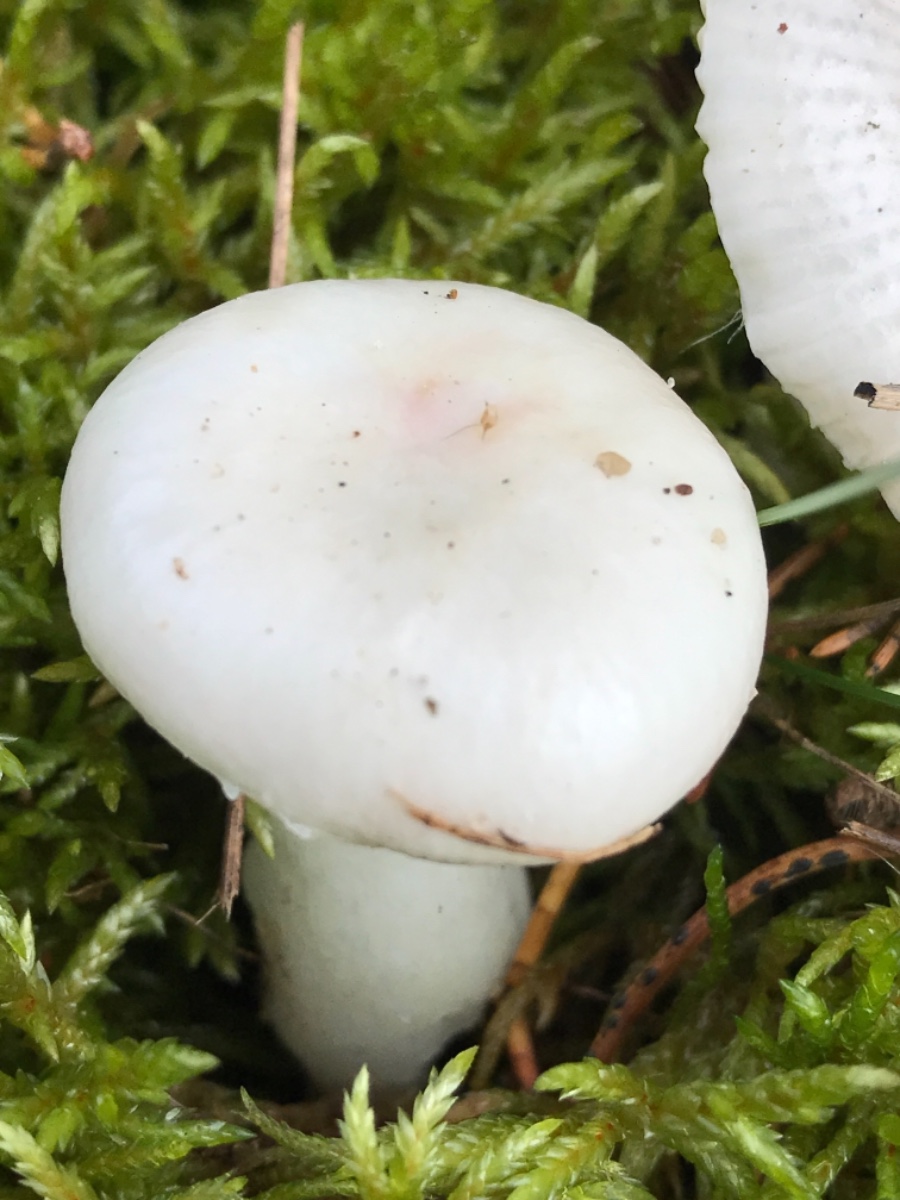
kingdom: Fungi
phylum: Basidiomycota
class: Agaricomycetes
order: Russulales
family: Russulaceae
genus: Russula
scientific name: Russula betularum
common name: bleg gift-skørhat
